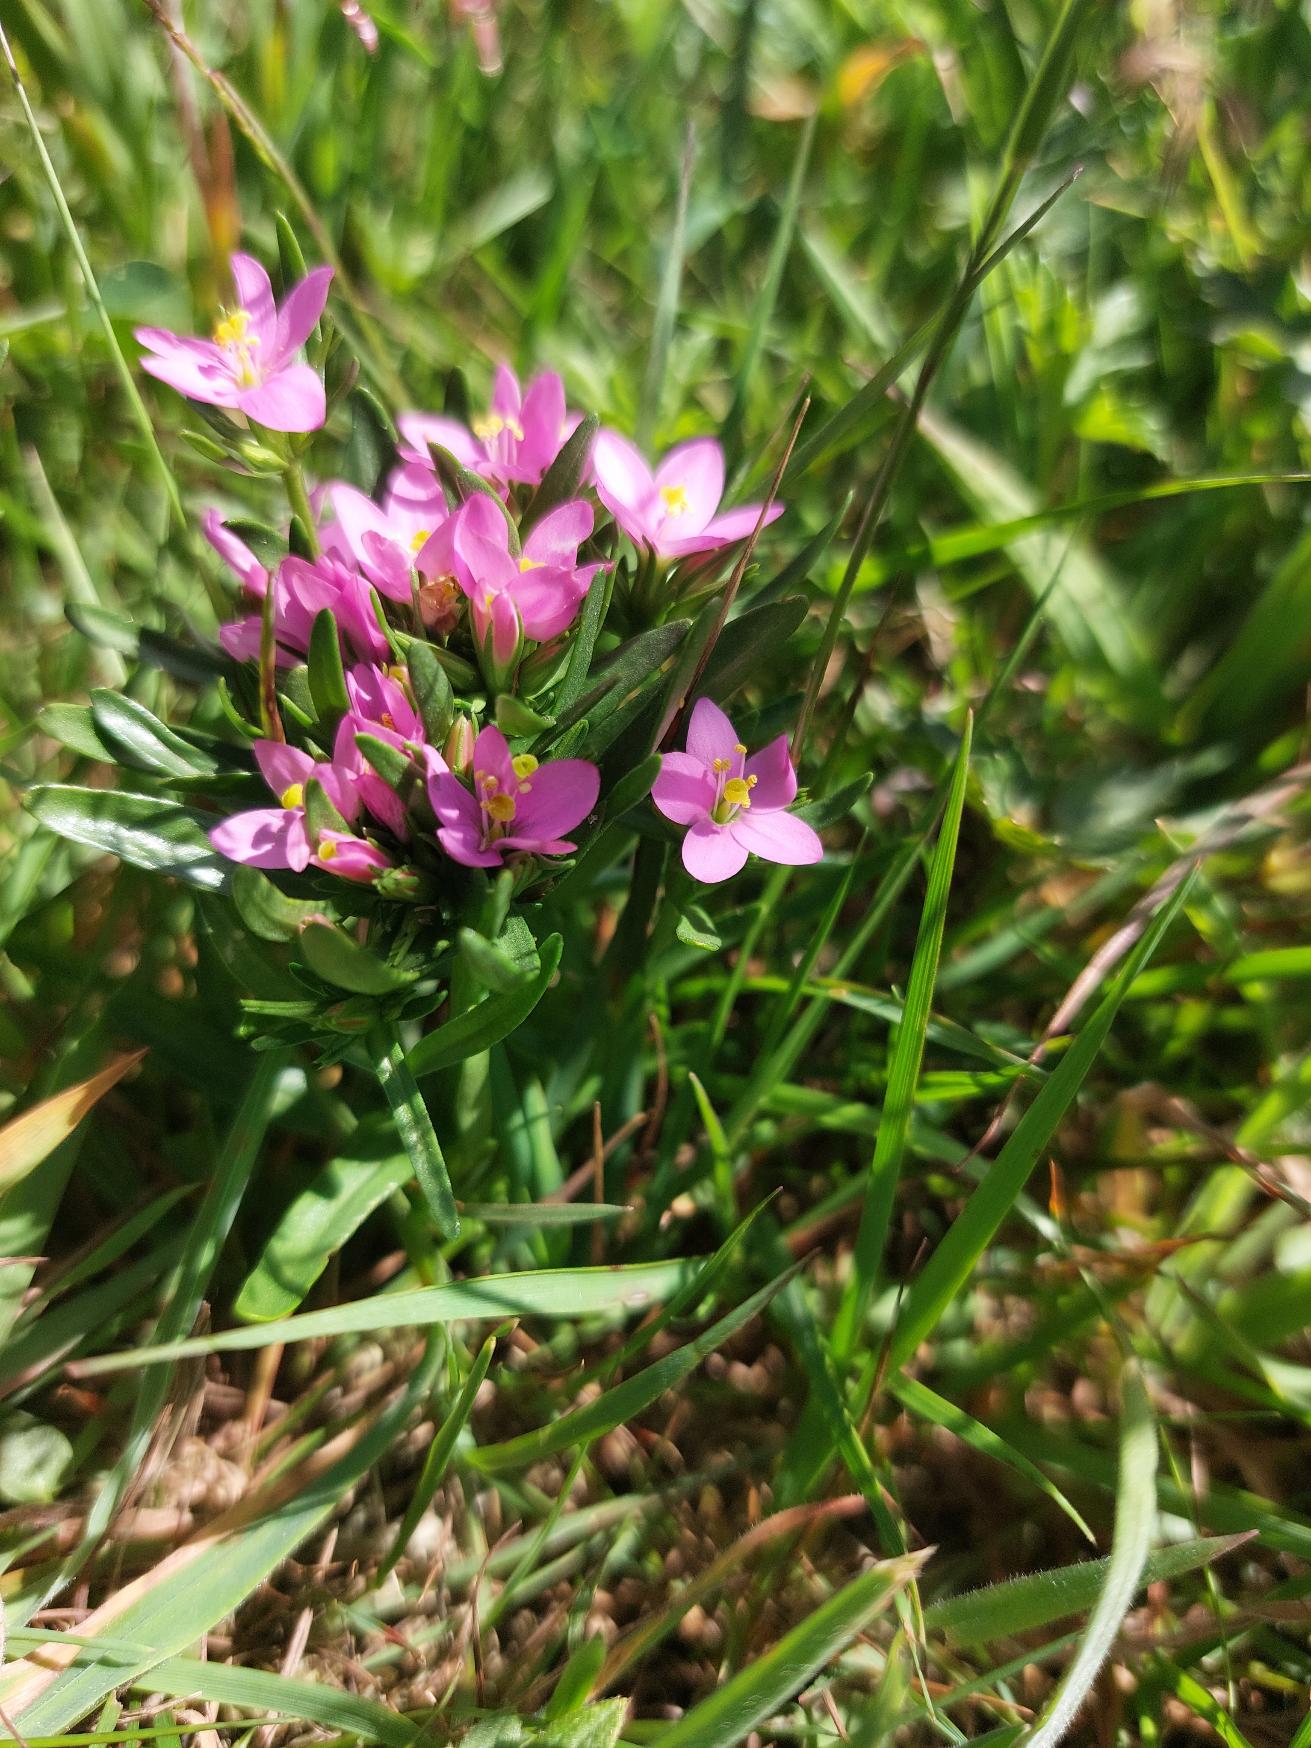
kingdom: Plantae
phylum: Tracheophyta
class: Magnoliopsida
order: Gentianales
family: Gentianaceae
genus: Centaurium
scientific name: Centaurium littorale
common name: Strand-tusindgylden
